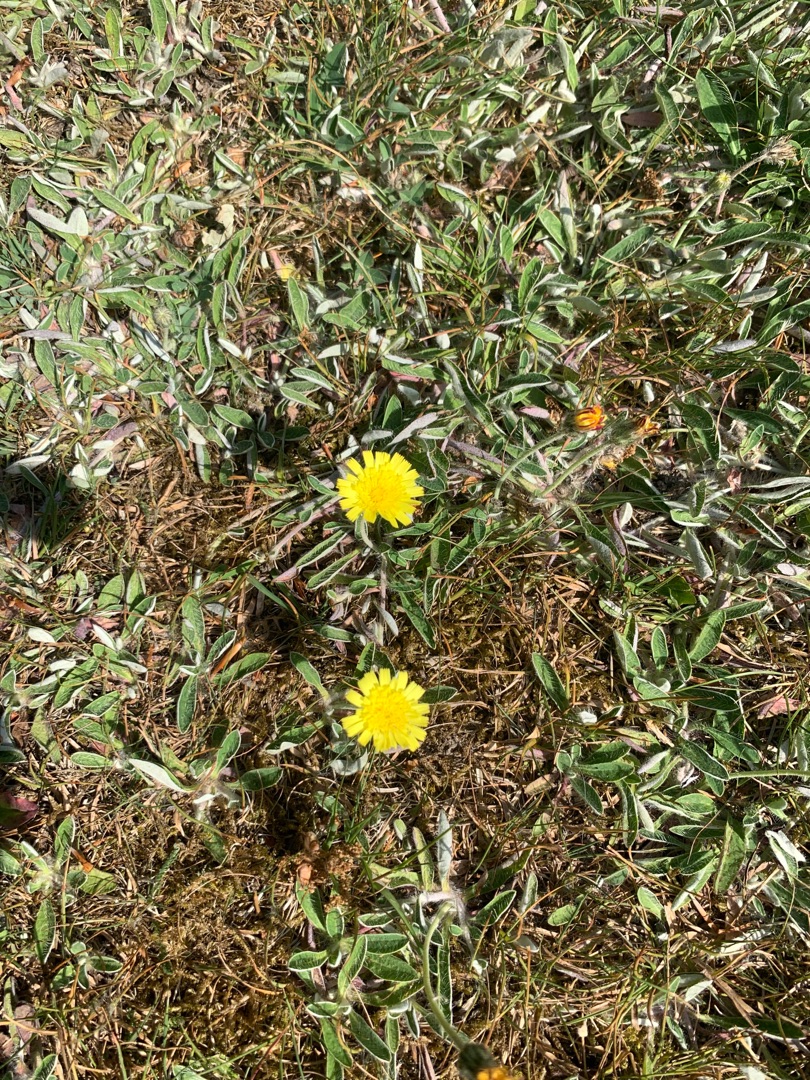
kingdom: Plantae
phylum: Tracheophyta
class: Magnoliopsida
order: Asterales
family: Asteraceae
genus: Pilosella
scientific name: Pilosella officinarum
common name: Håret høgeurt
